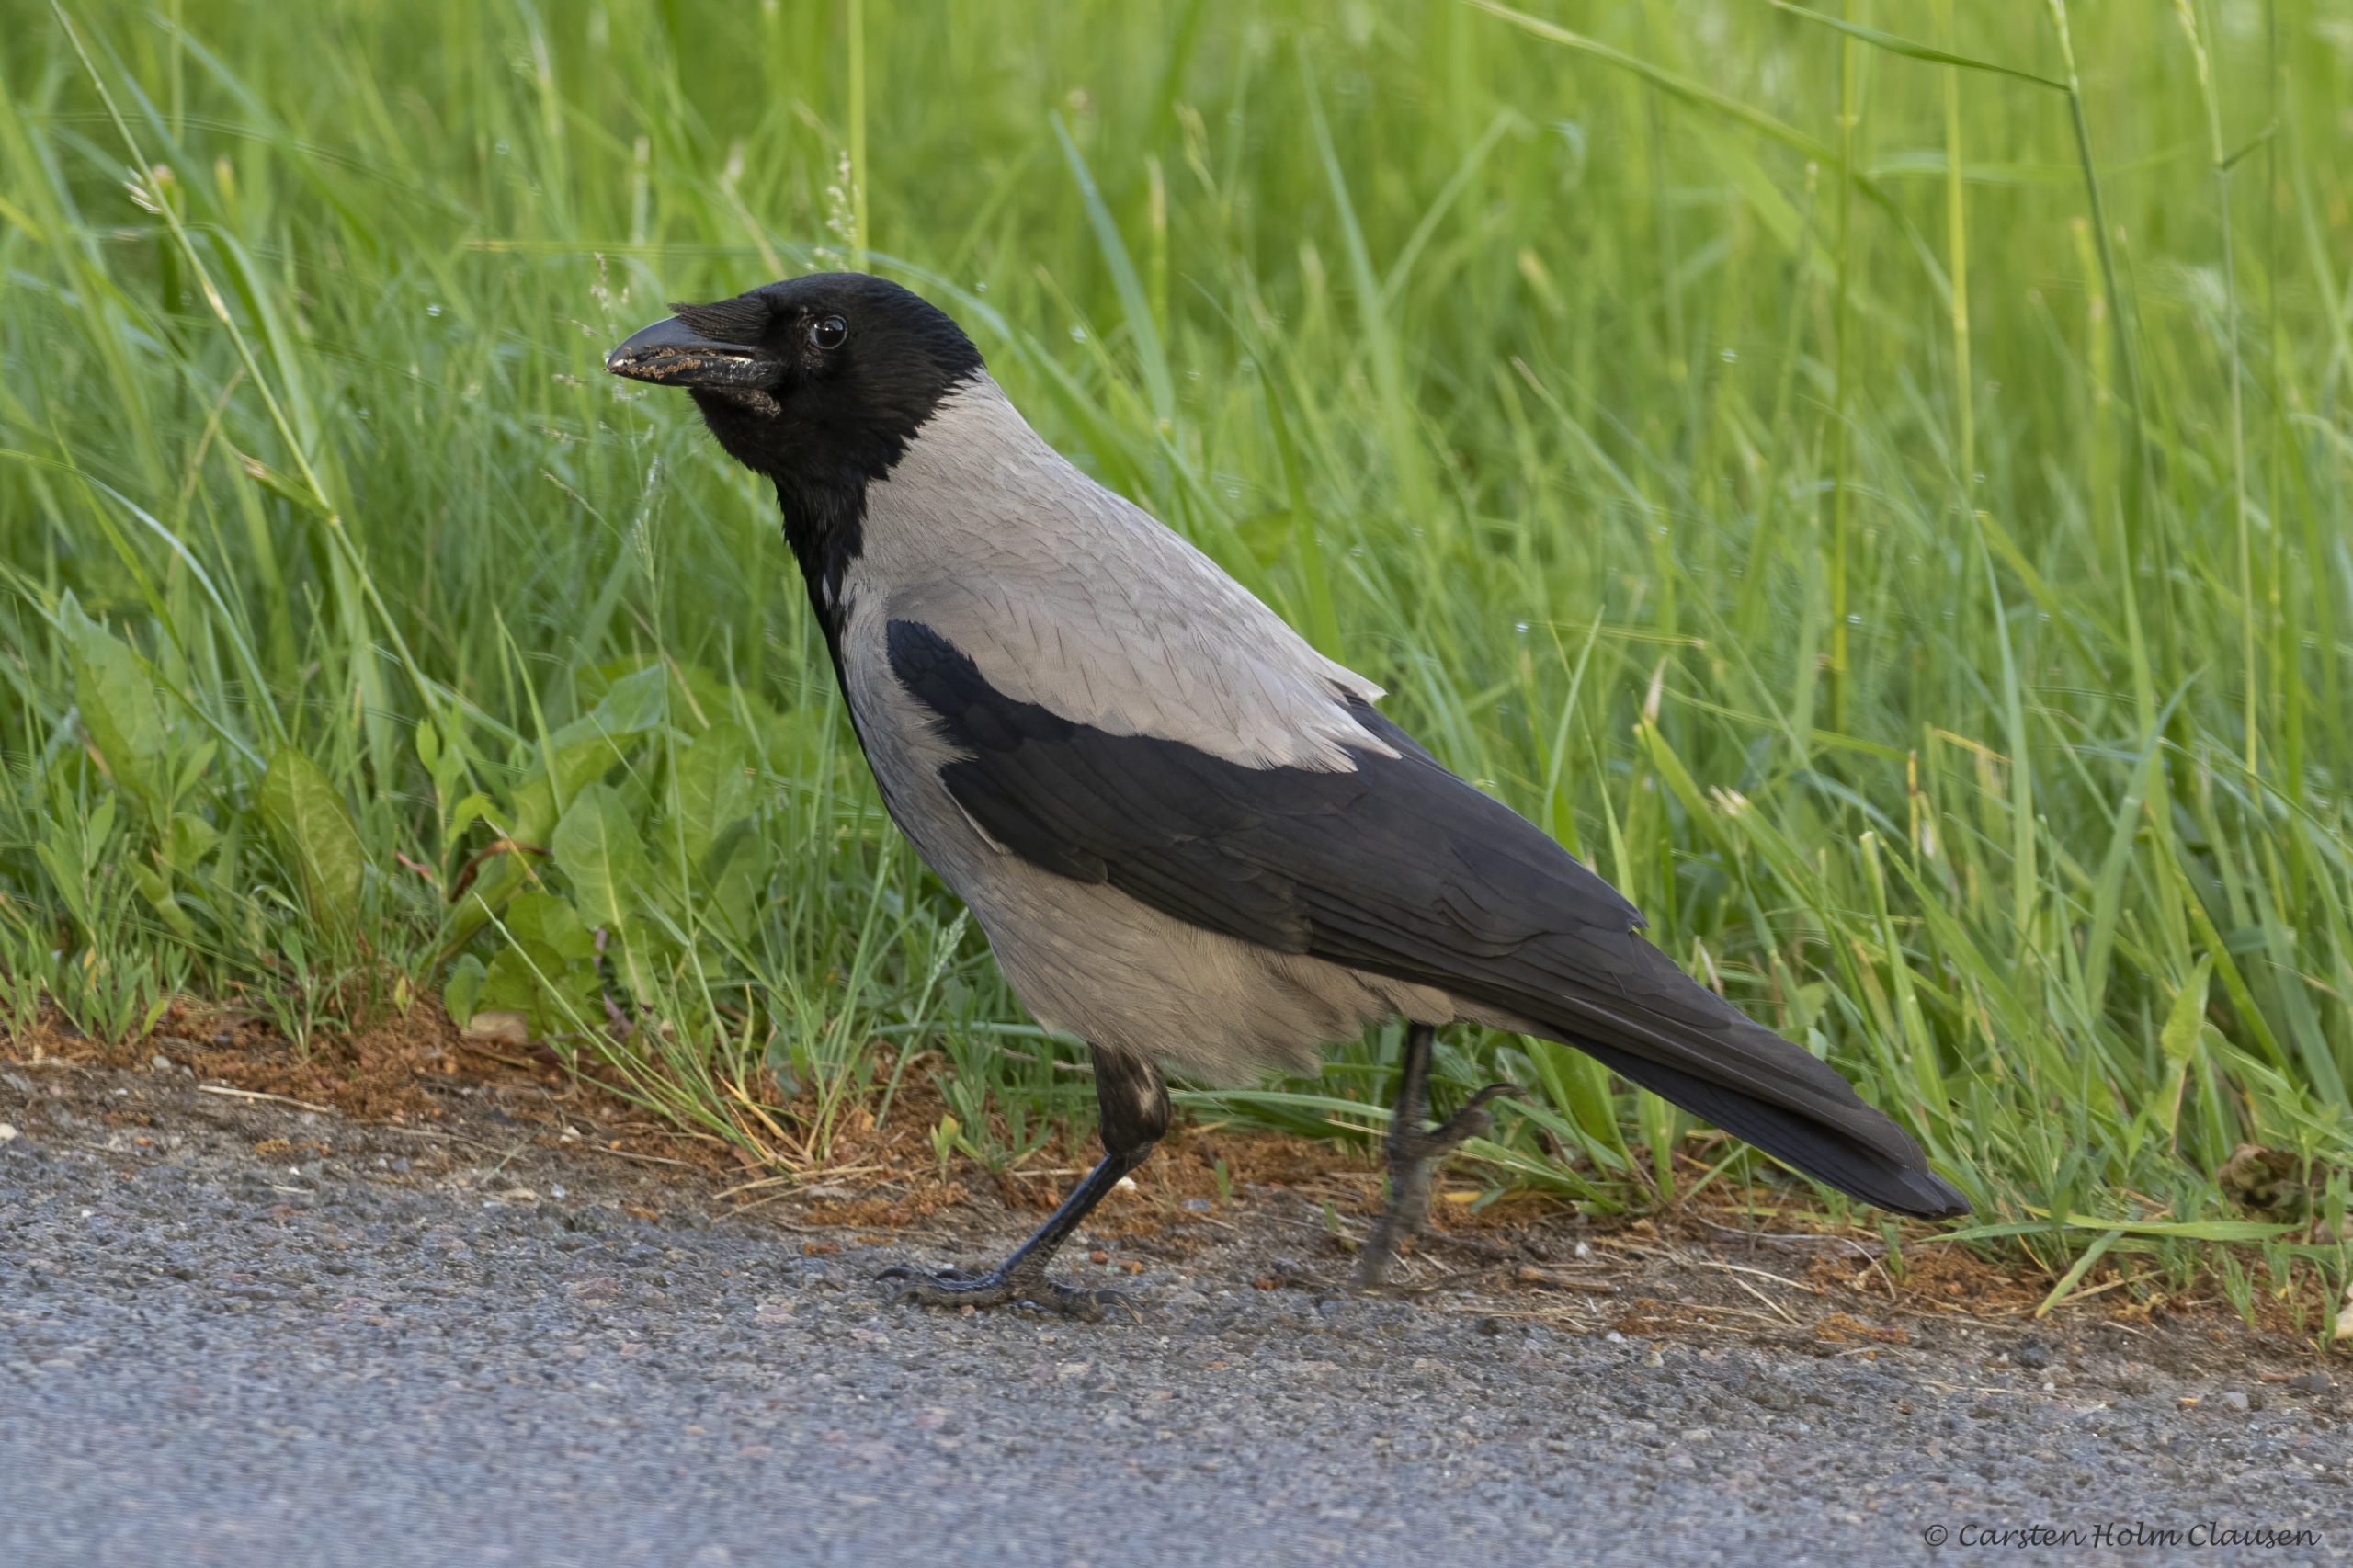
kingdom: Animalia
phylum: Chordata
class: Aves
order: Passeriformes
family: Corvidae
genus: Corvus
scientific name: Corvus cornix
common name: Gråkrage
